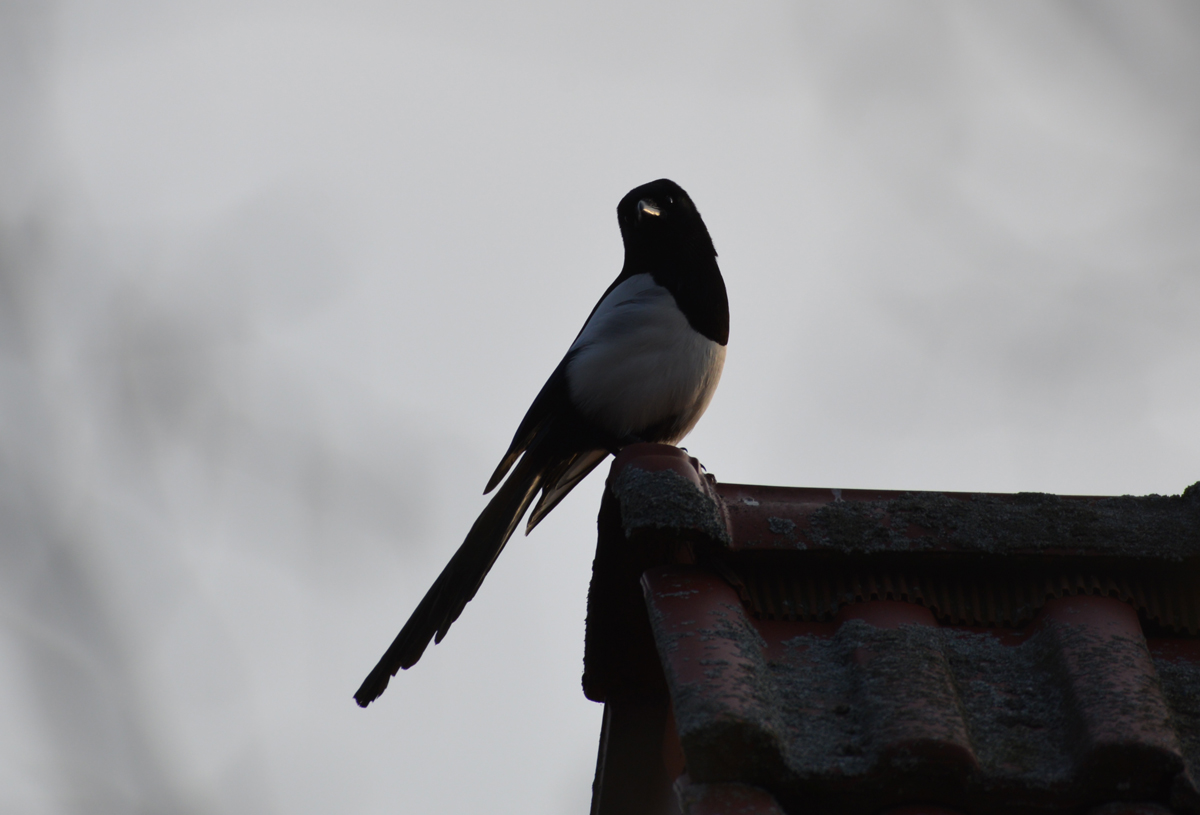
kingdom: Animalia
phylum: Chordata
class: Aves
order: Passeriformes
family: Corvidae
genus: Pica
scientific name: Pica pica
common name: Eurasian magpie
